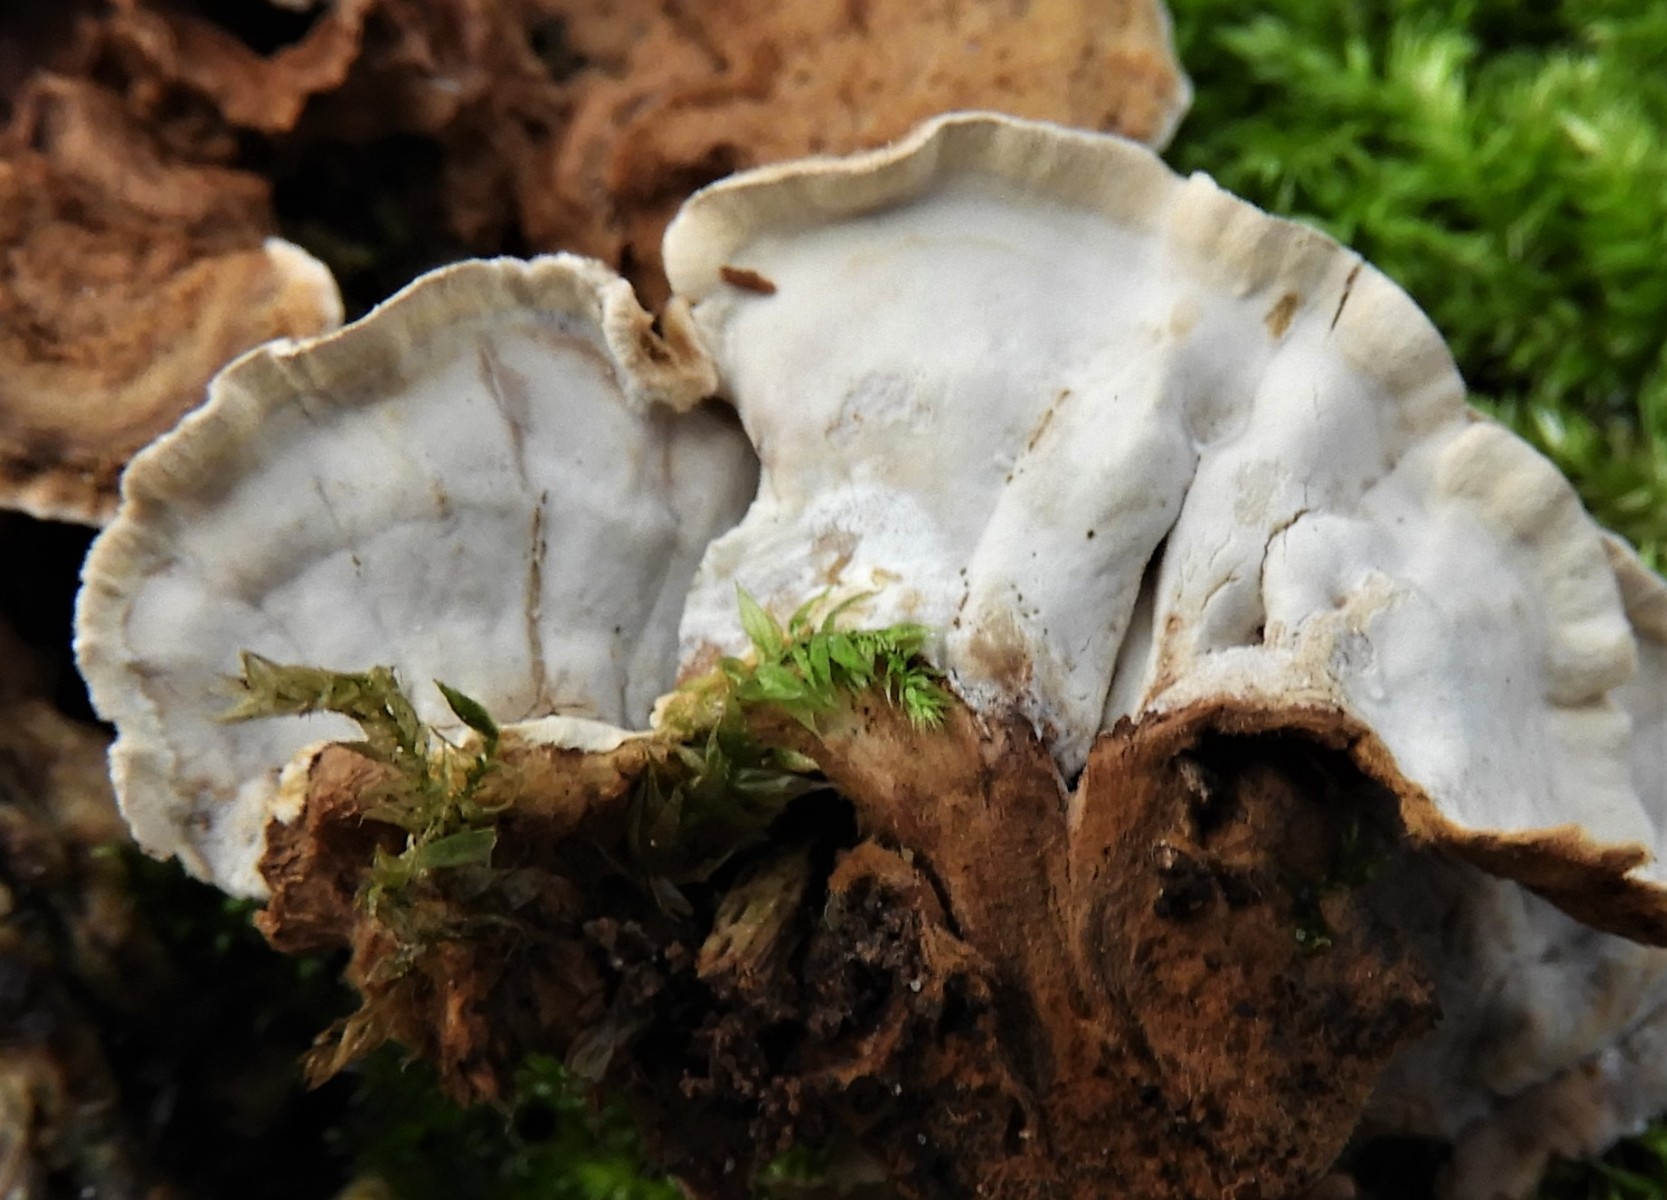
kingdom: Fungi
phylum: Basidiomycota
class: Agaricomycetes
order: Russulales
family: Hericiaceae
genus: Laxitextum
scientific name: Laxitextum bicolor
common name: tvefarvet filtskind
